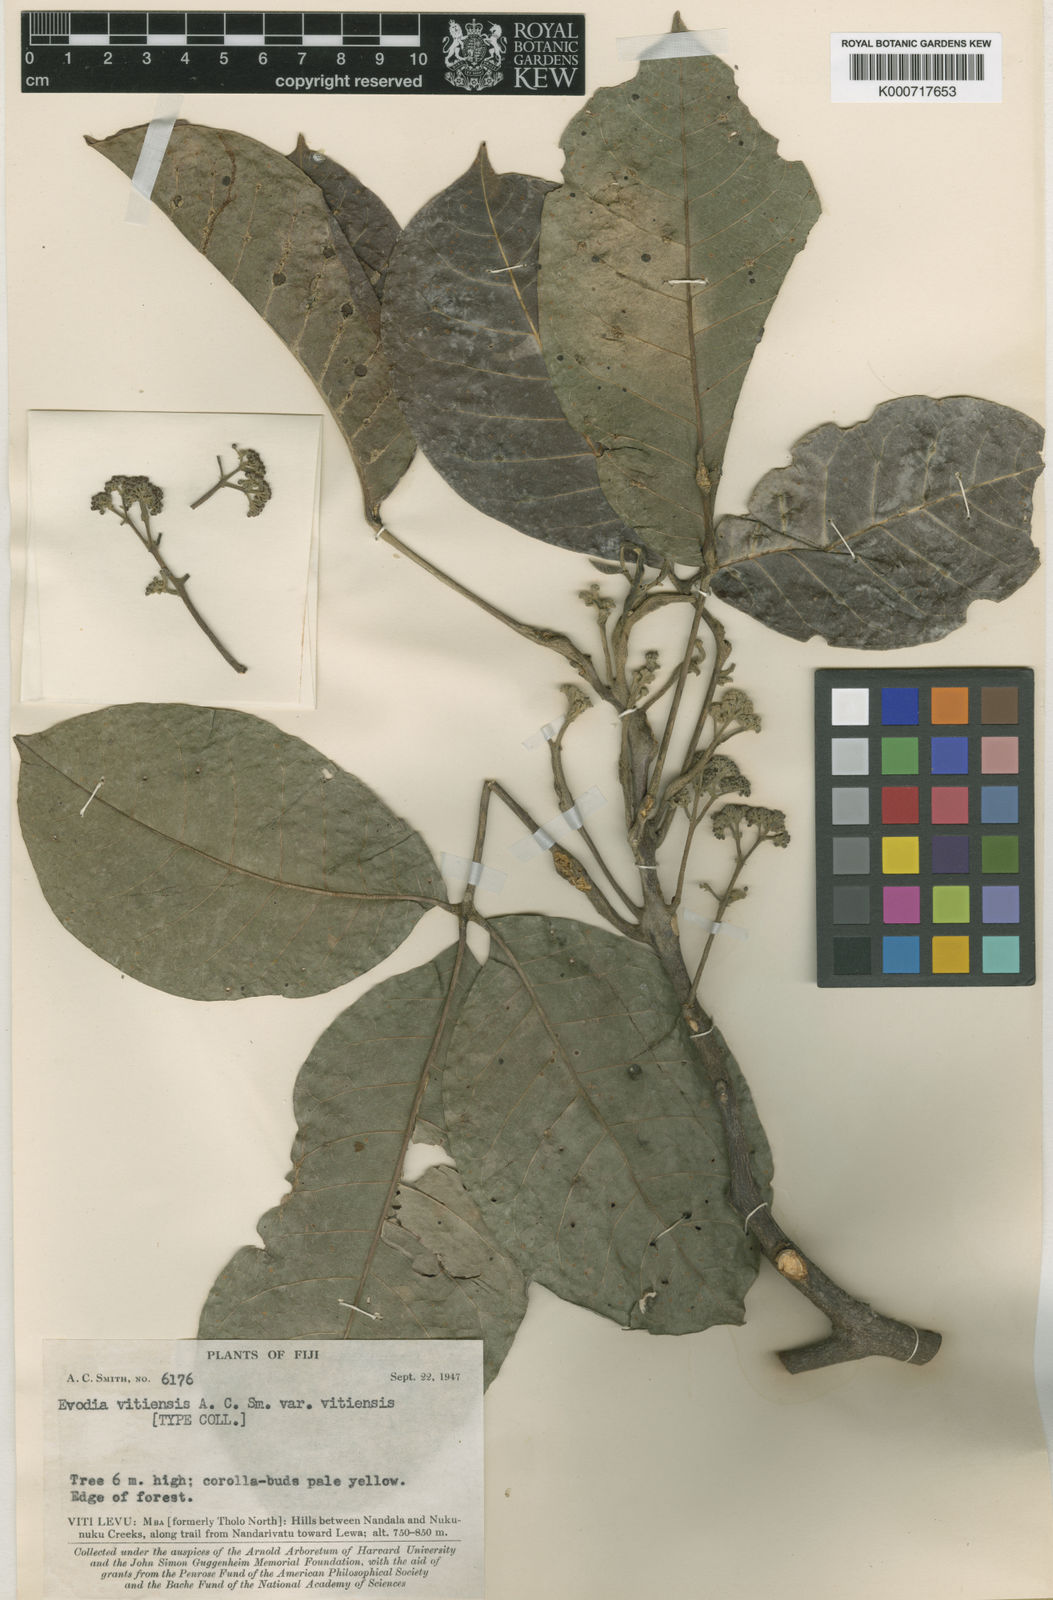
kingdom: Plantae
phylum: Tracheophyta
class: Magnoliopsida
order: Sapindales
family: Rutaceae
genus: Melicope
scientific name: Melicope cucullata
